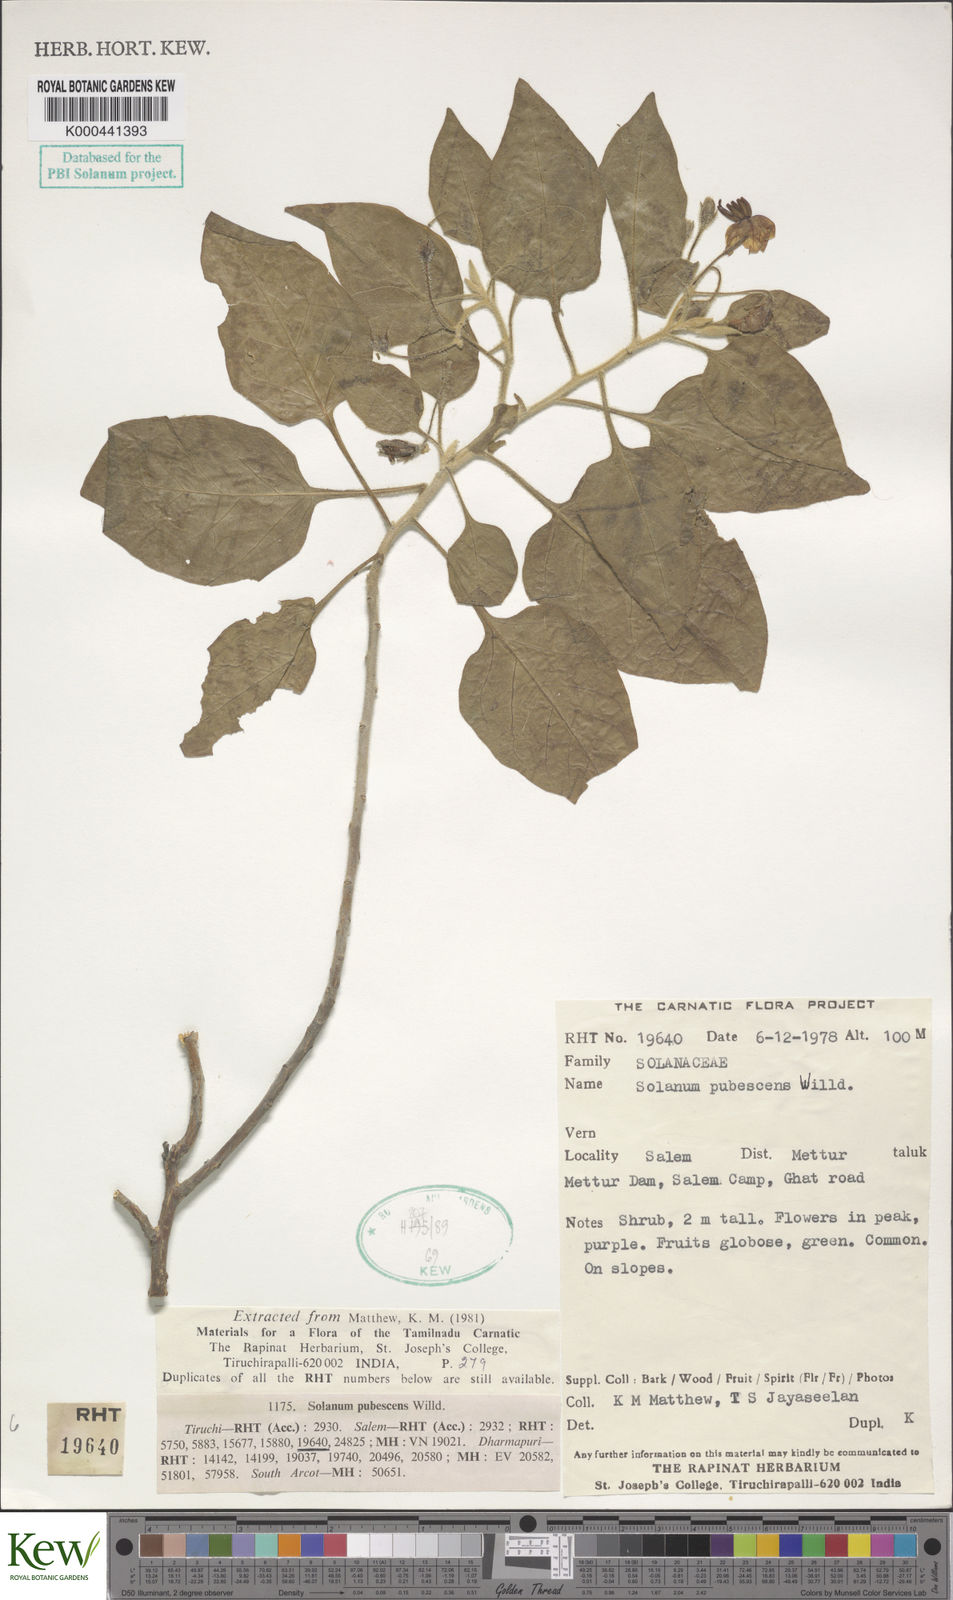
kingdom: Plantae
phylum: Tracheophyta
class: Magnoliopsida
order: Solanales
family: Solanaceae
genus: Solanum
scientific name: Solanum pubescens
